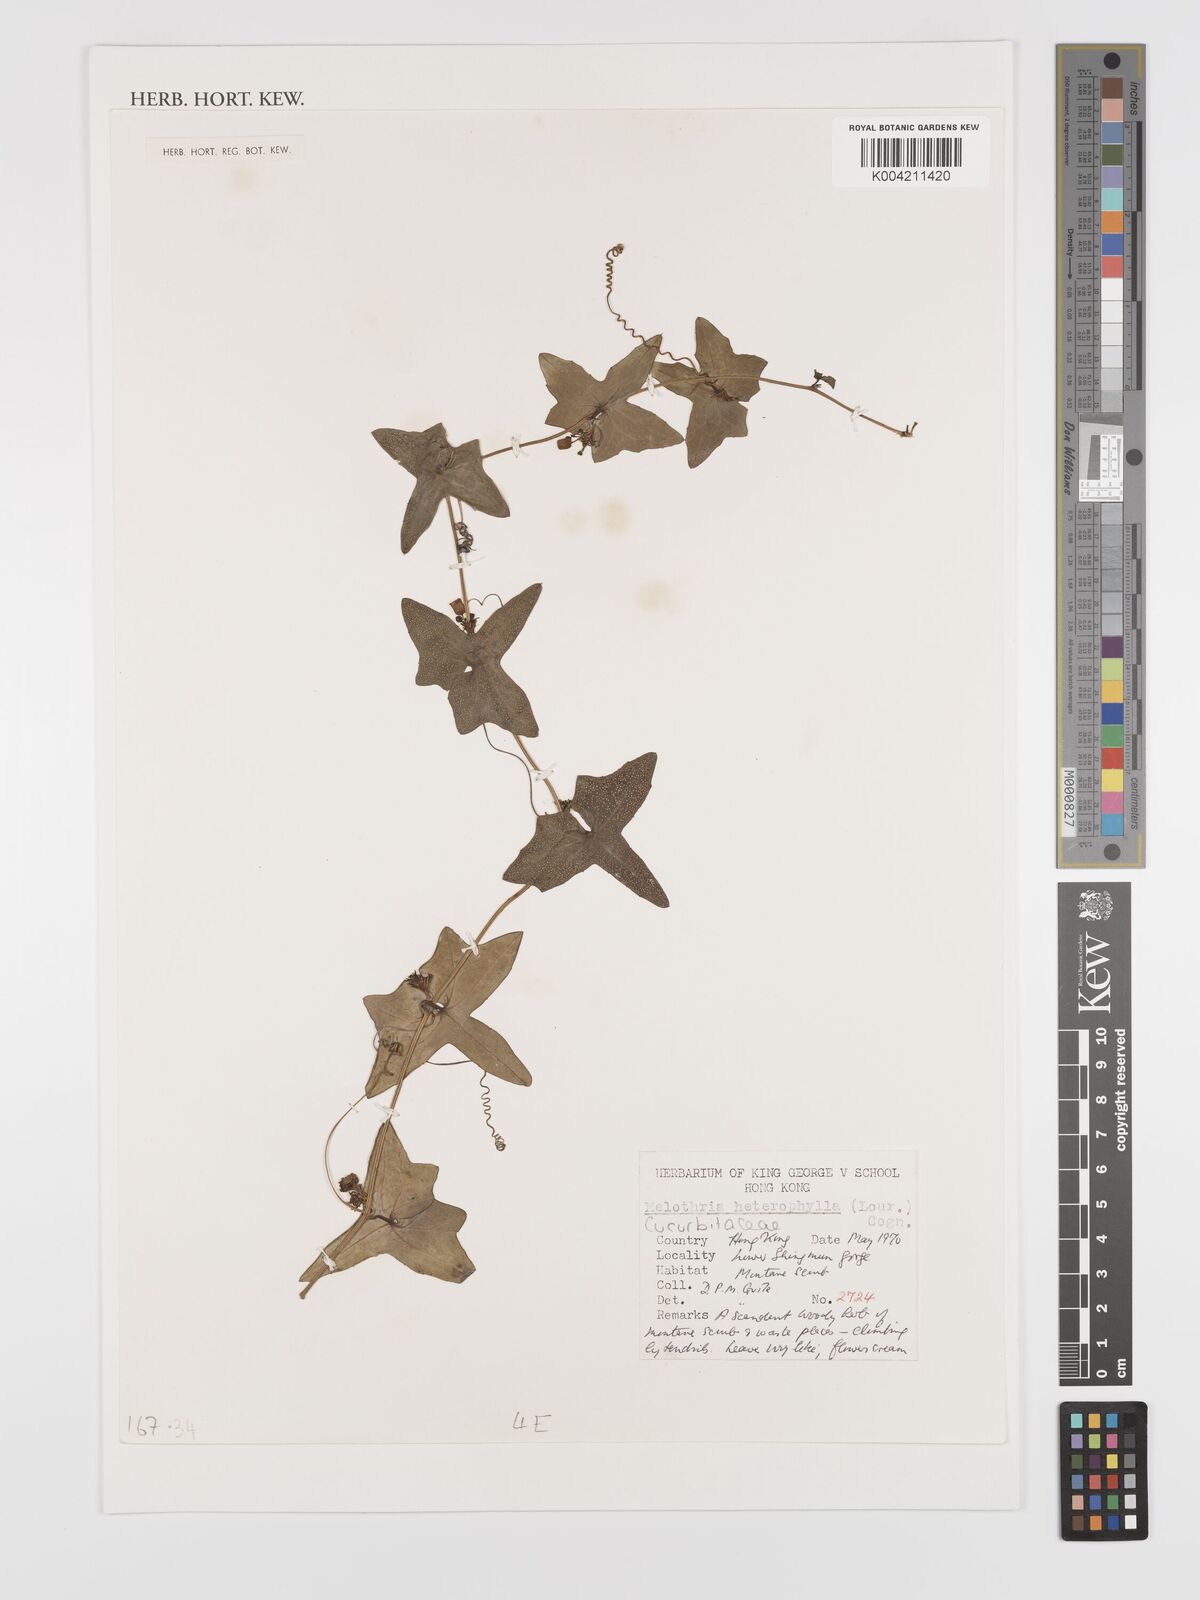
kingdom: Plantae
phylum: Tracheophyta
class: Magnoliopsida
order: Cucurbitales
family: Cucurbitaceae
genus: Solena
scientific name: Solena heterophylla
